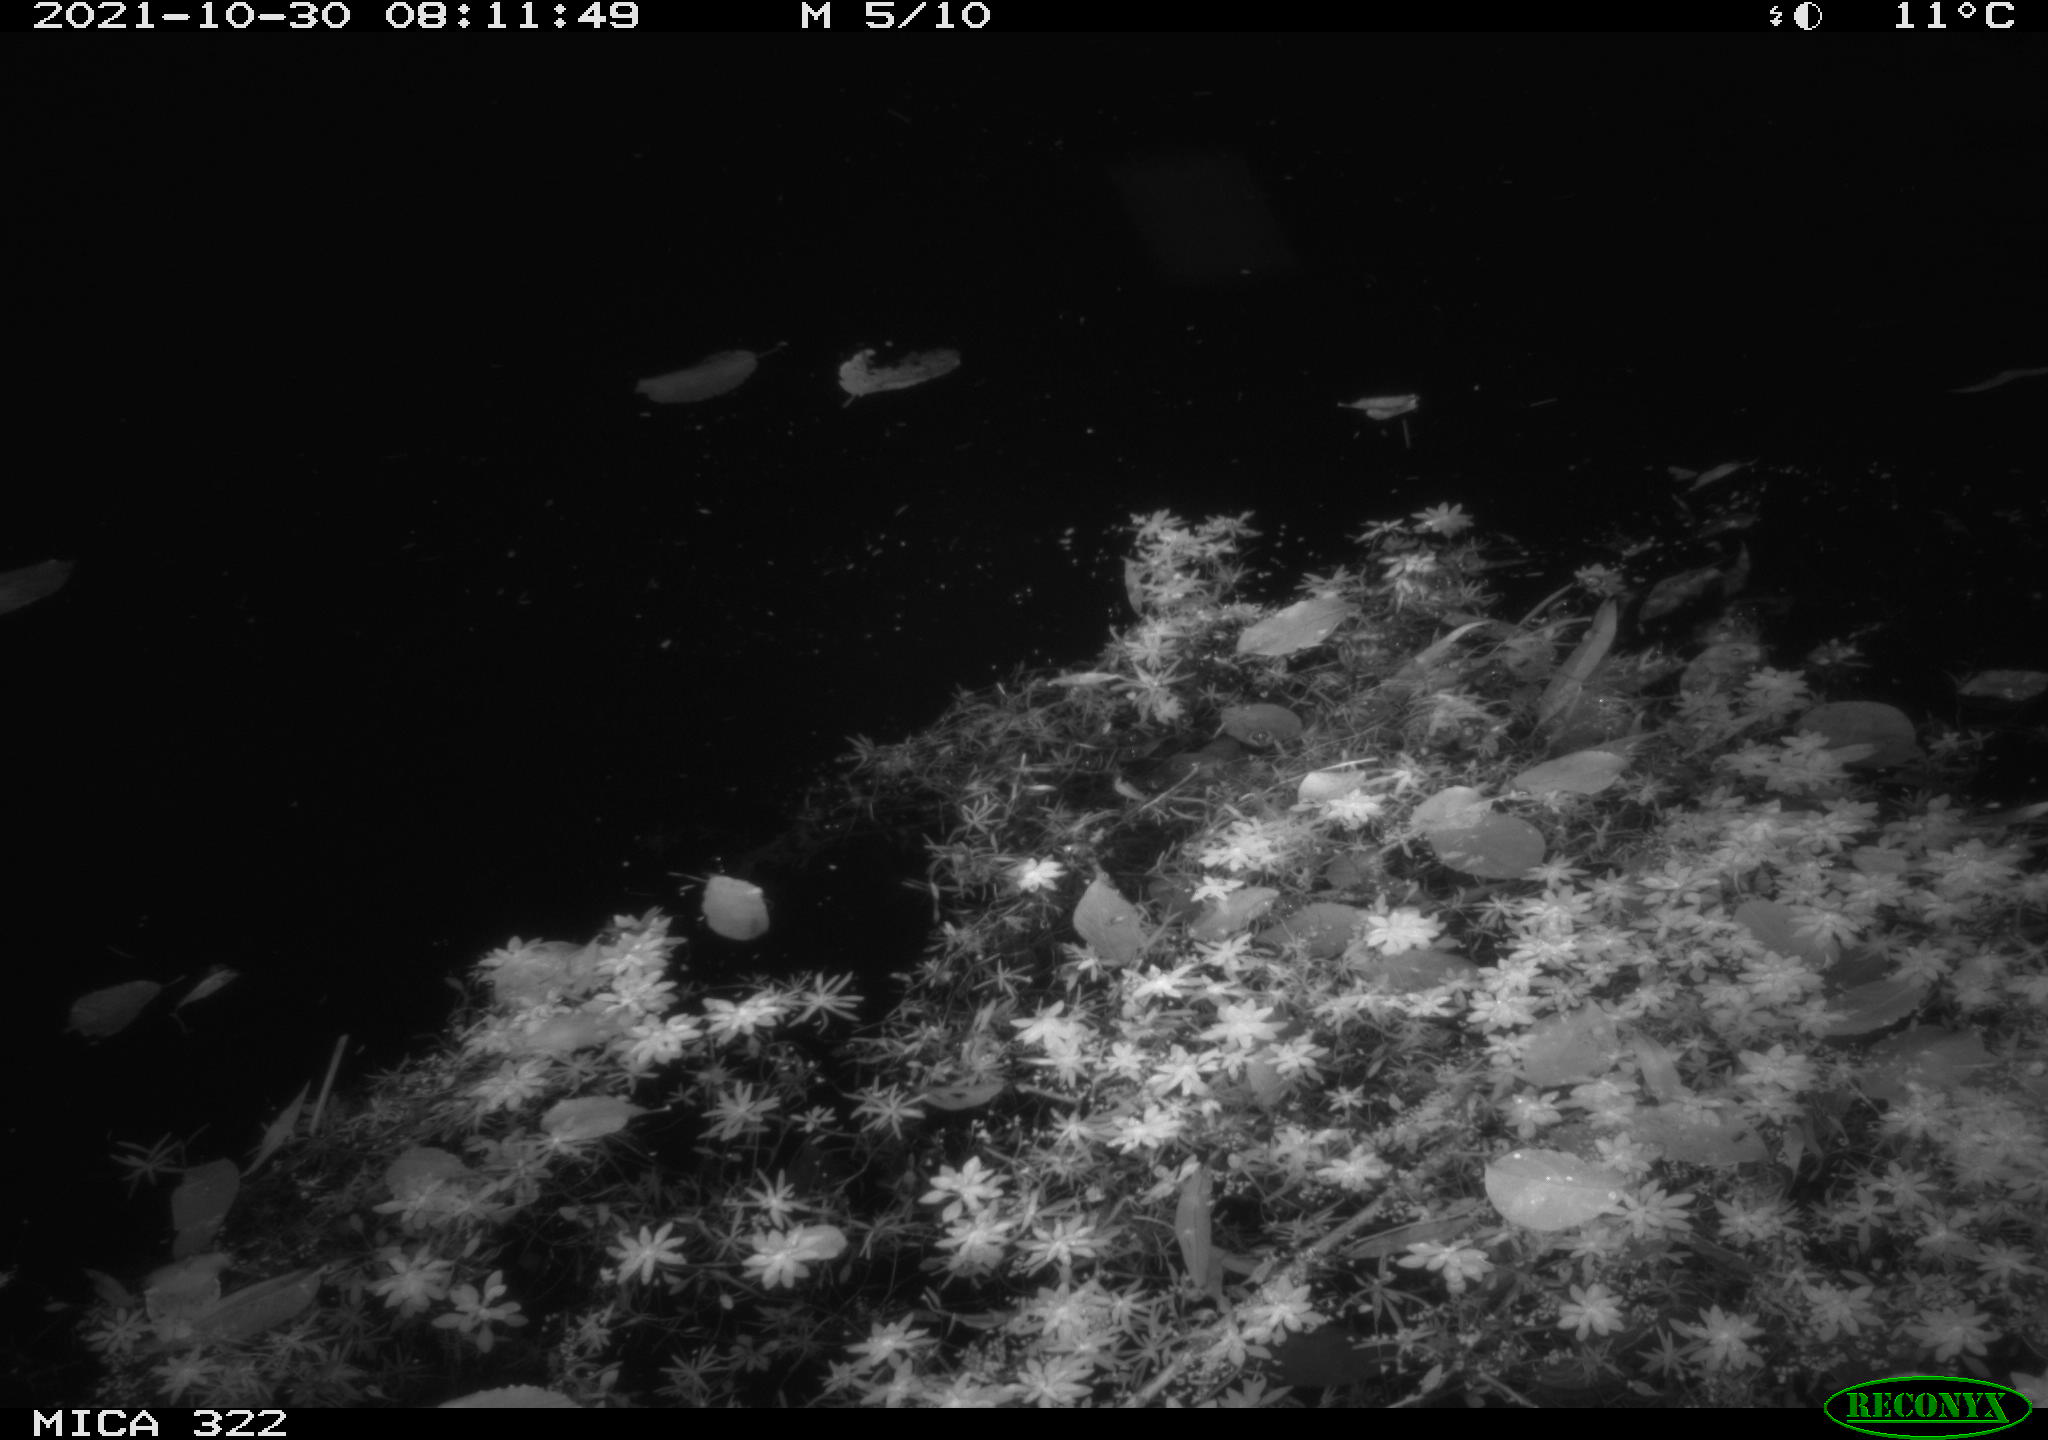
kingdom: Animalia
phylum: Chordata
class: Aves
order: Anseriformes
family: Anatidae
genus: Anas
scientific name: Anas platyrhynchos
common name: Mallard
